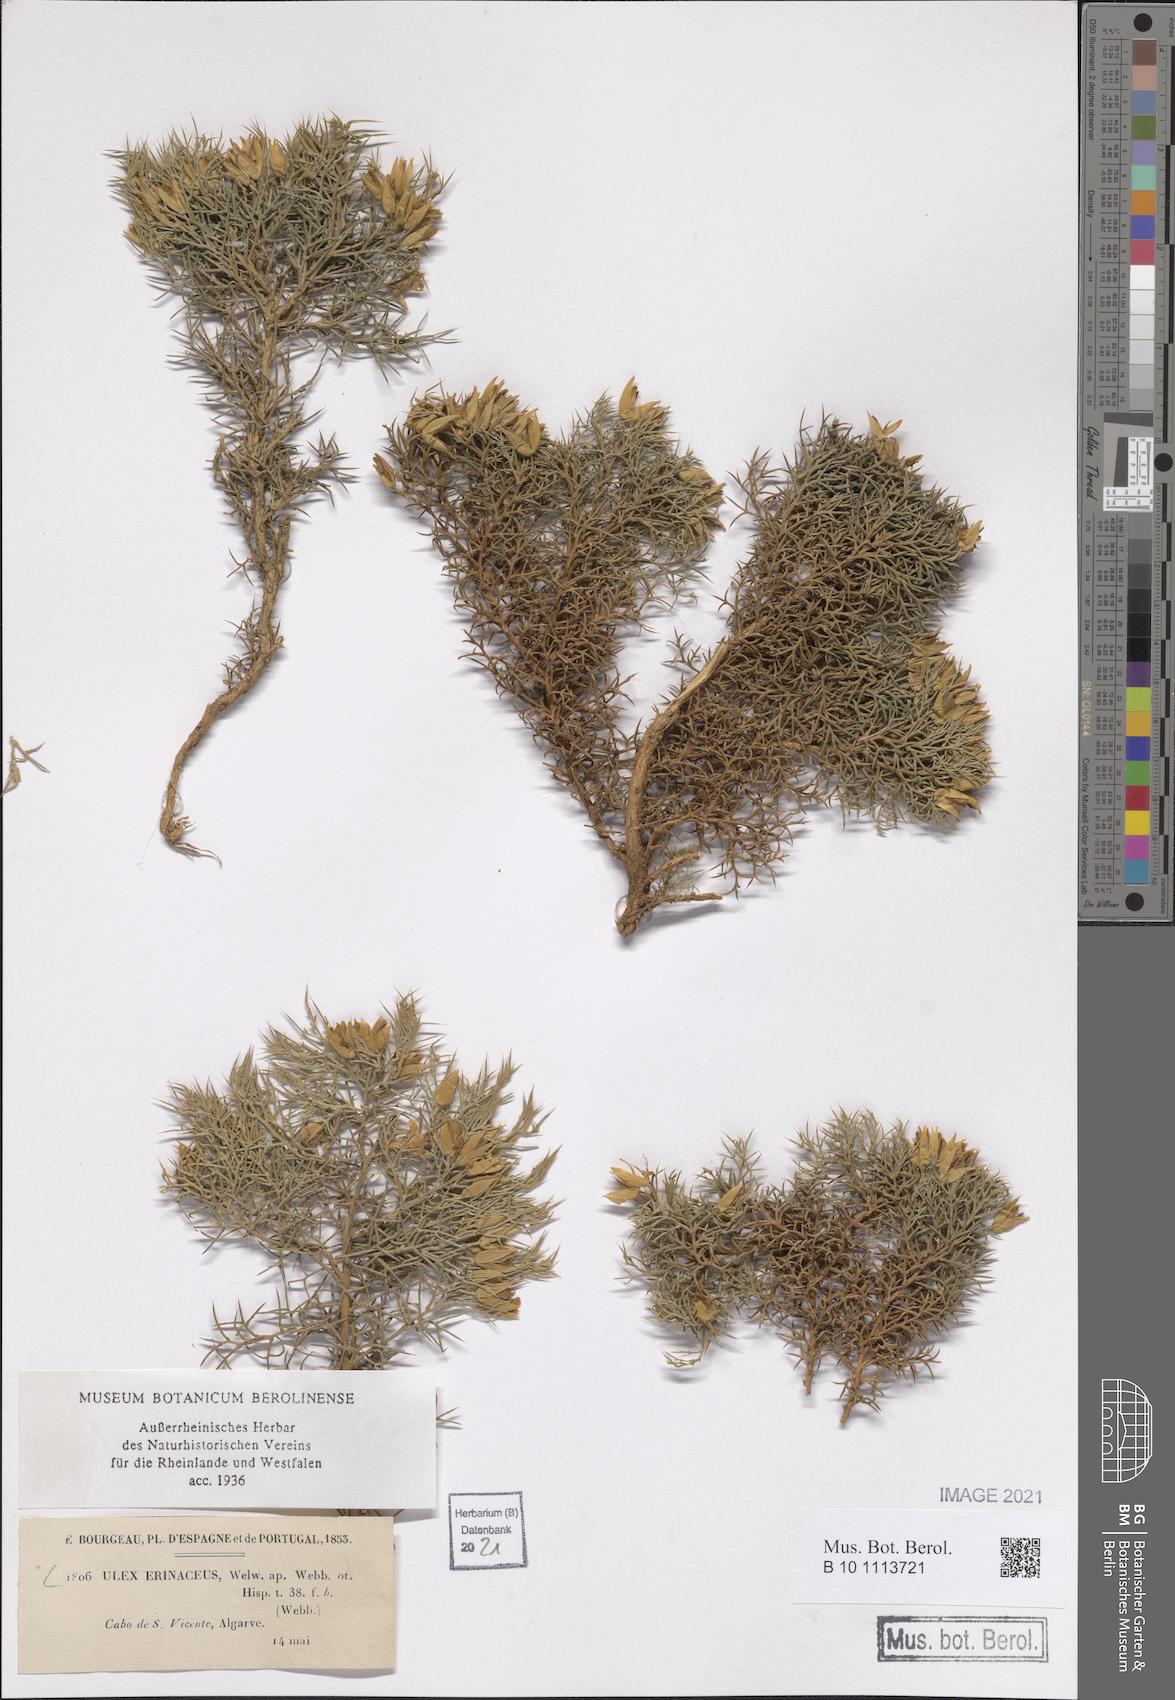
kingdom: Plantae
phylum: Tracheophyta
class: Magnoliopsida
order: Fabales
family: Fabaceae
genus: Ulex
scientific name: Ulex erinaceus
